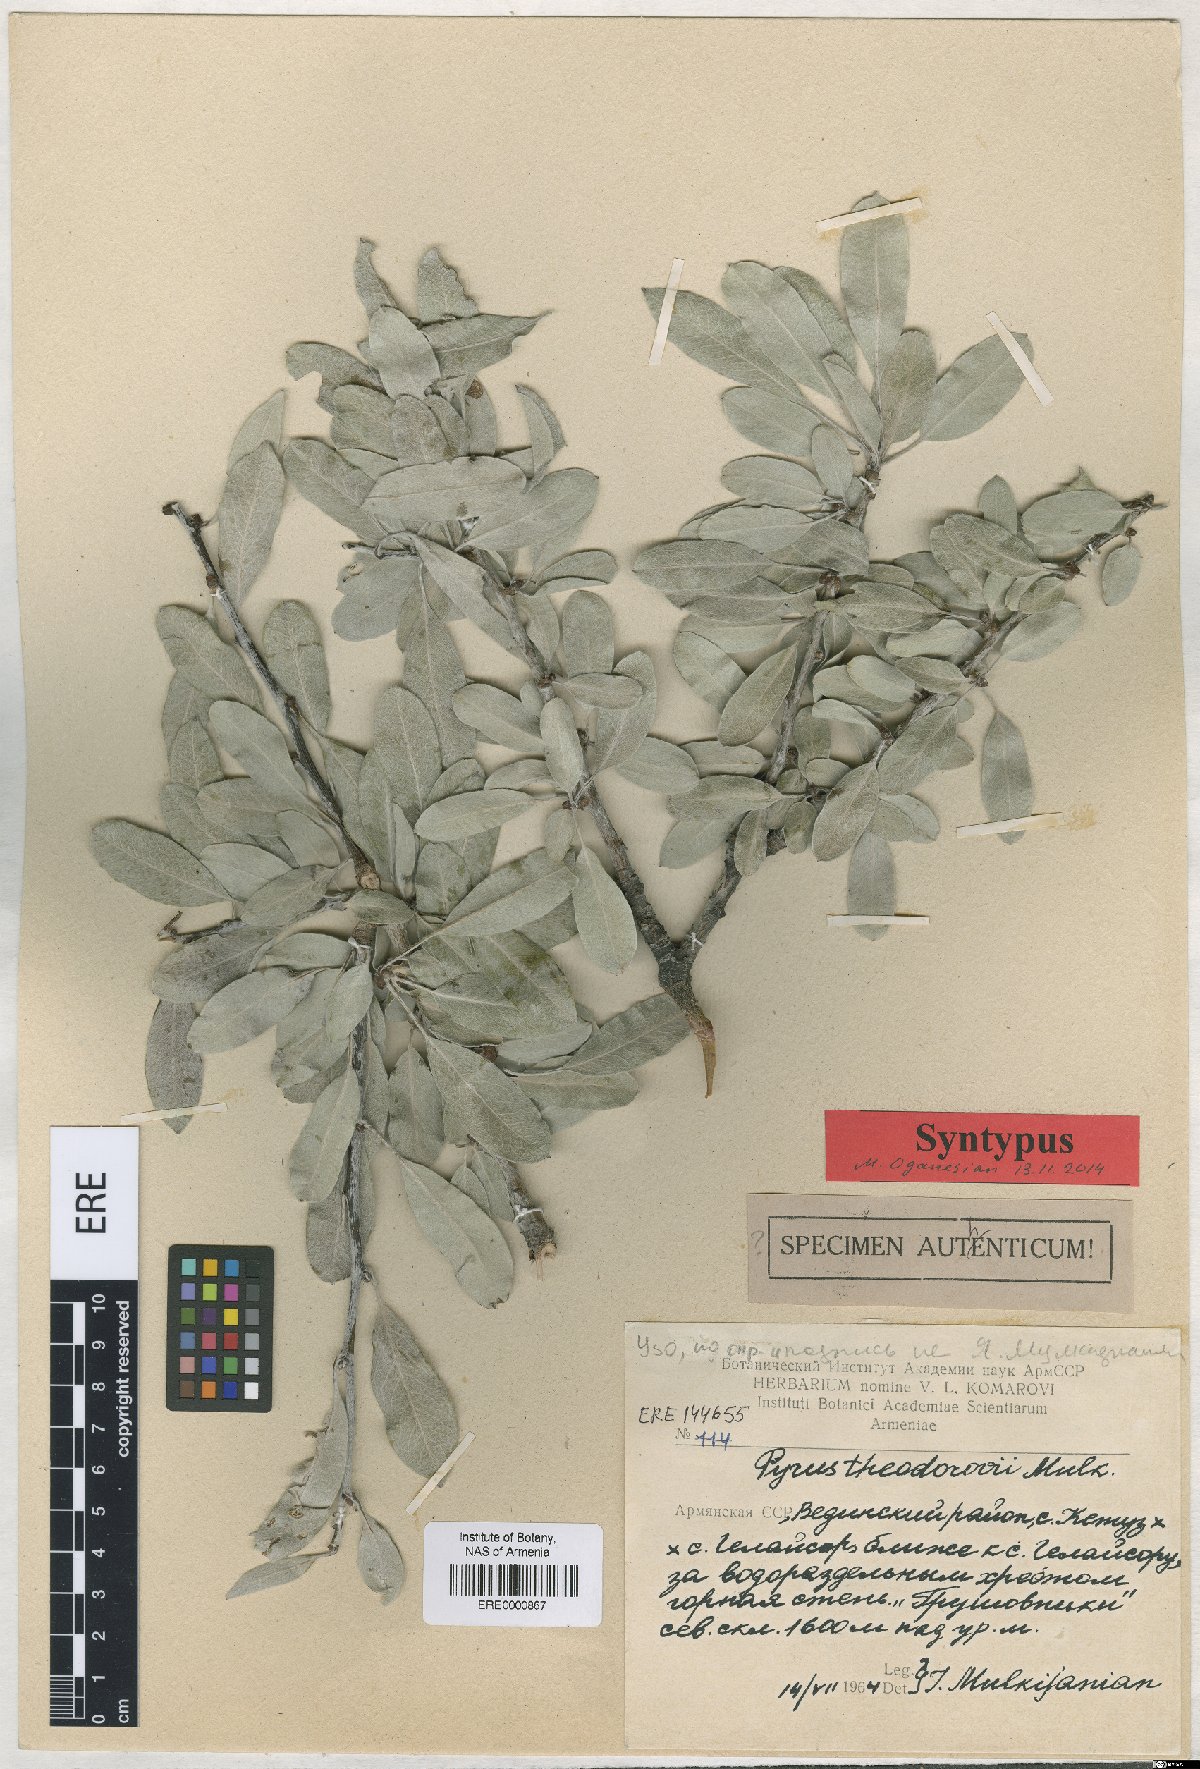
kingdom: Plantae
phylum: Tracheophyta
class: Magnoliopsida
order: Rosales
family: Rosaceae
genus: Pyrus
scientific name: Pyrus theodorovii
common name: Teodorov's pear
